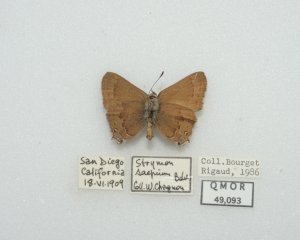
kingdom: Animalia
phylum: Arthropoda
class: Insecta
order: Lepidoptera
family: Lycaenidae
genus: Strymon
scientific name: Strymon saepium
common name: Hedgerow Hairstreak
